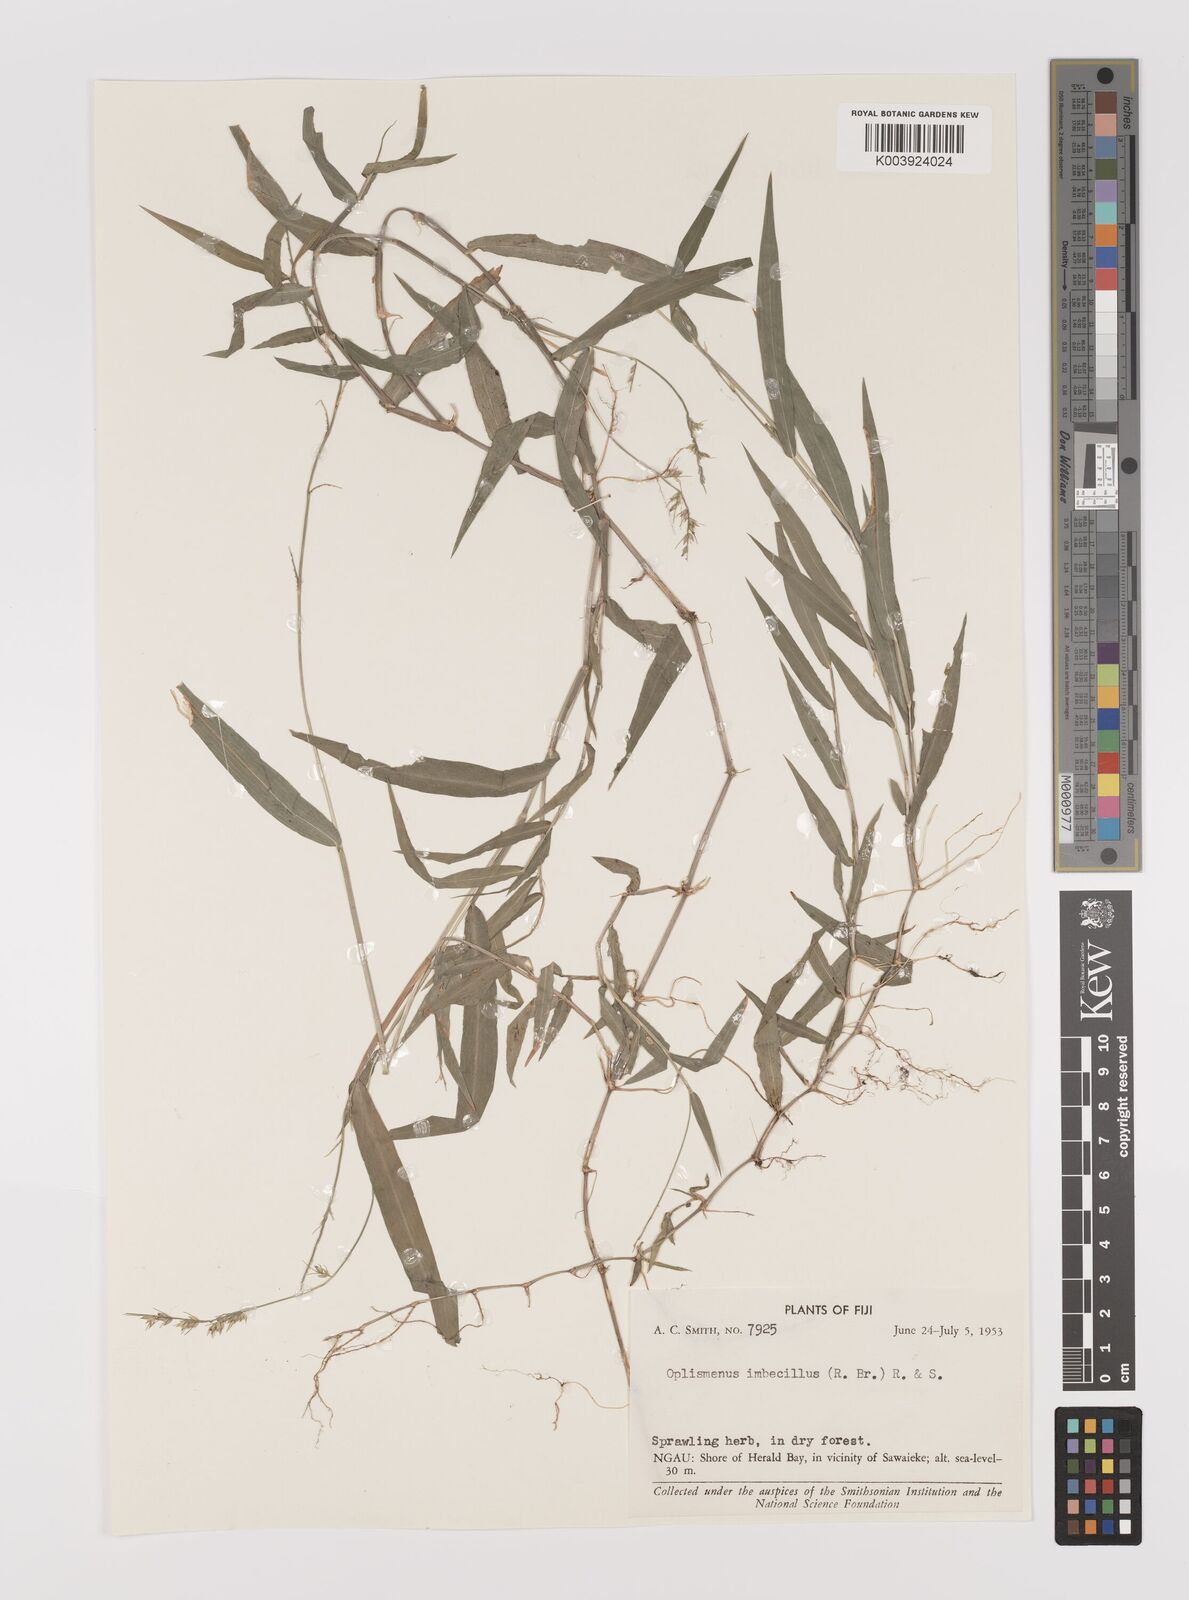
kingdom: Plantae
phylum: Tracheophyta
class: Liliopsida
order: Poales
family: Poaceae
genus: Oplismenus
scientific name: Oplismenus hirtellus
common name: Basketgrass
